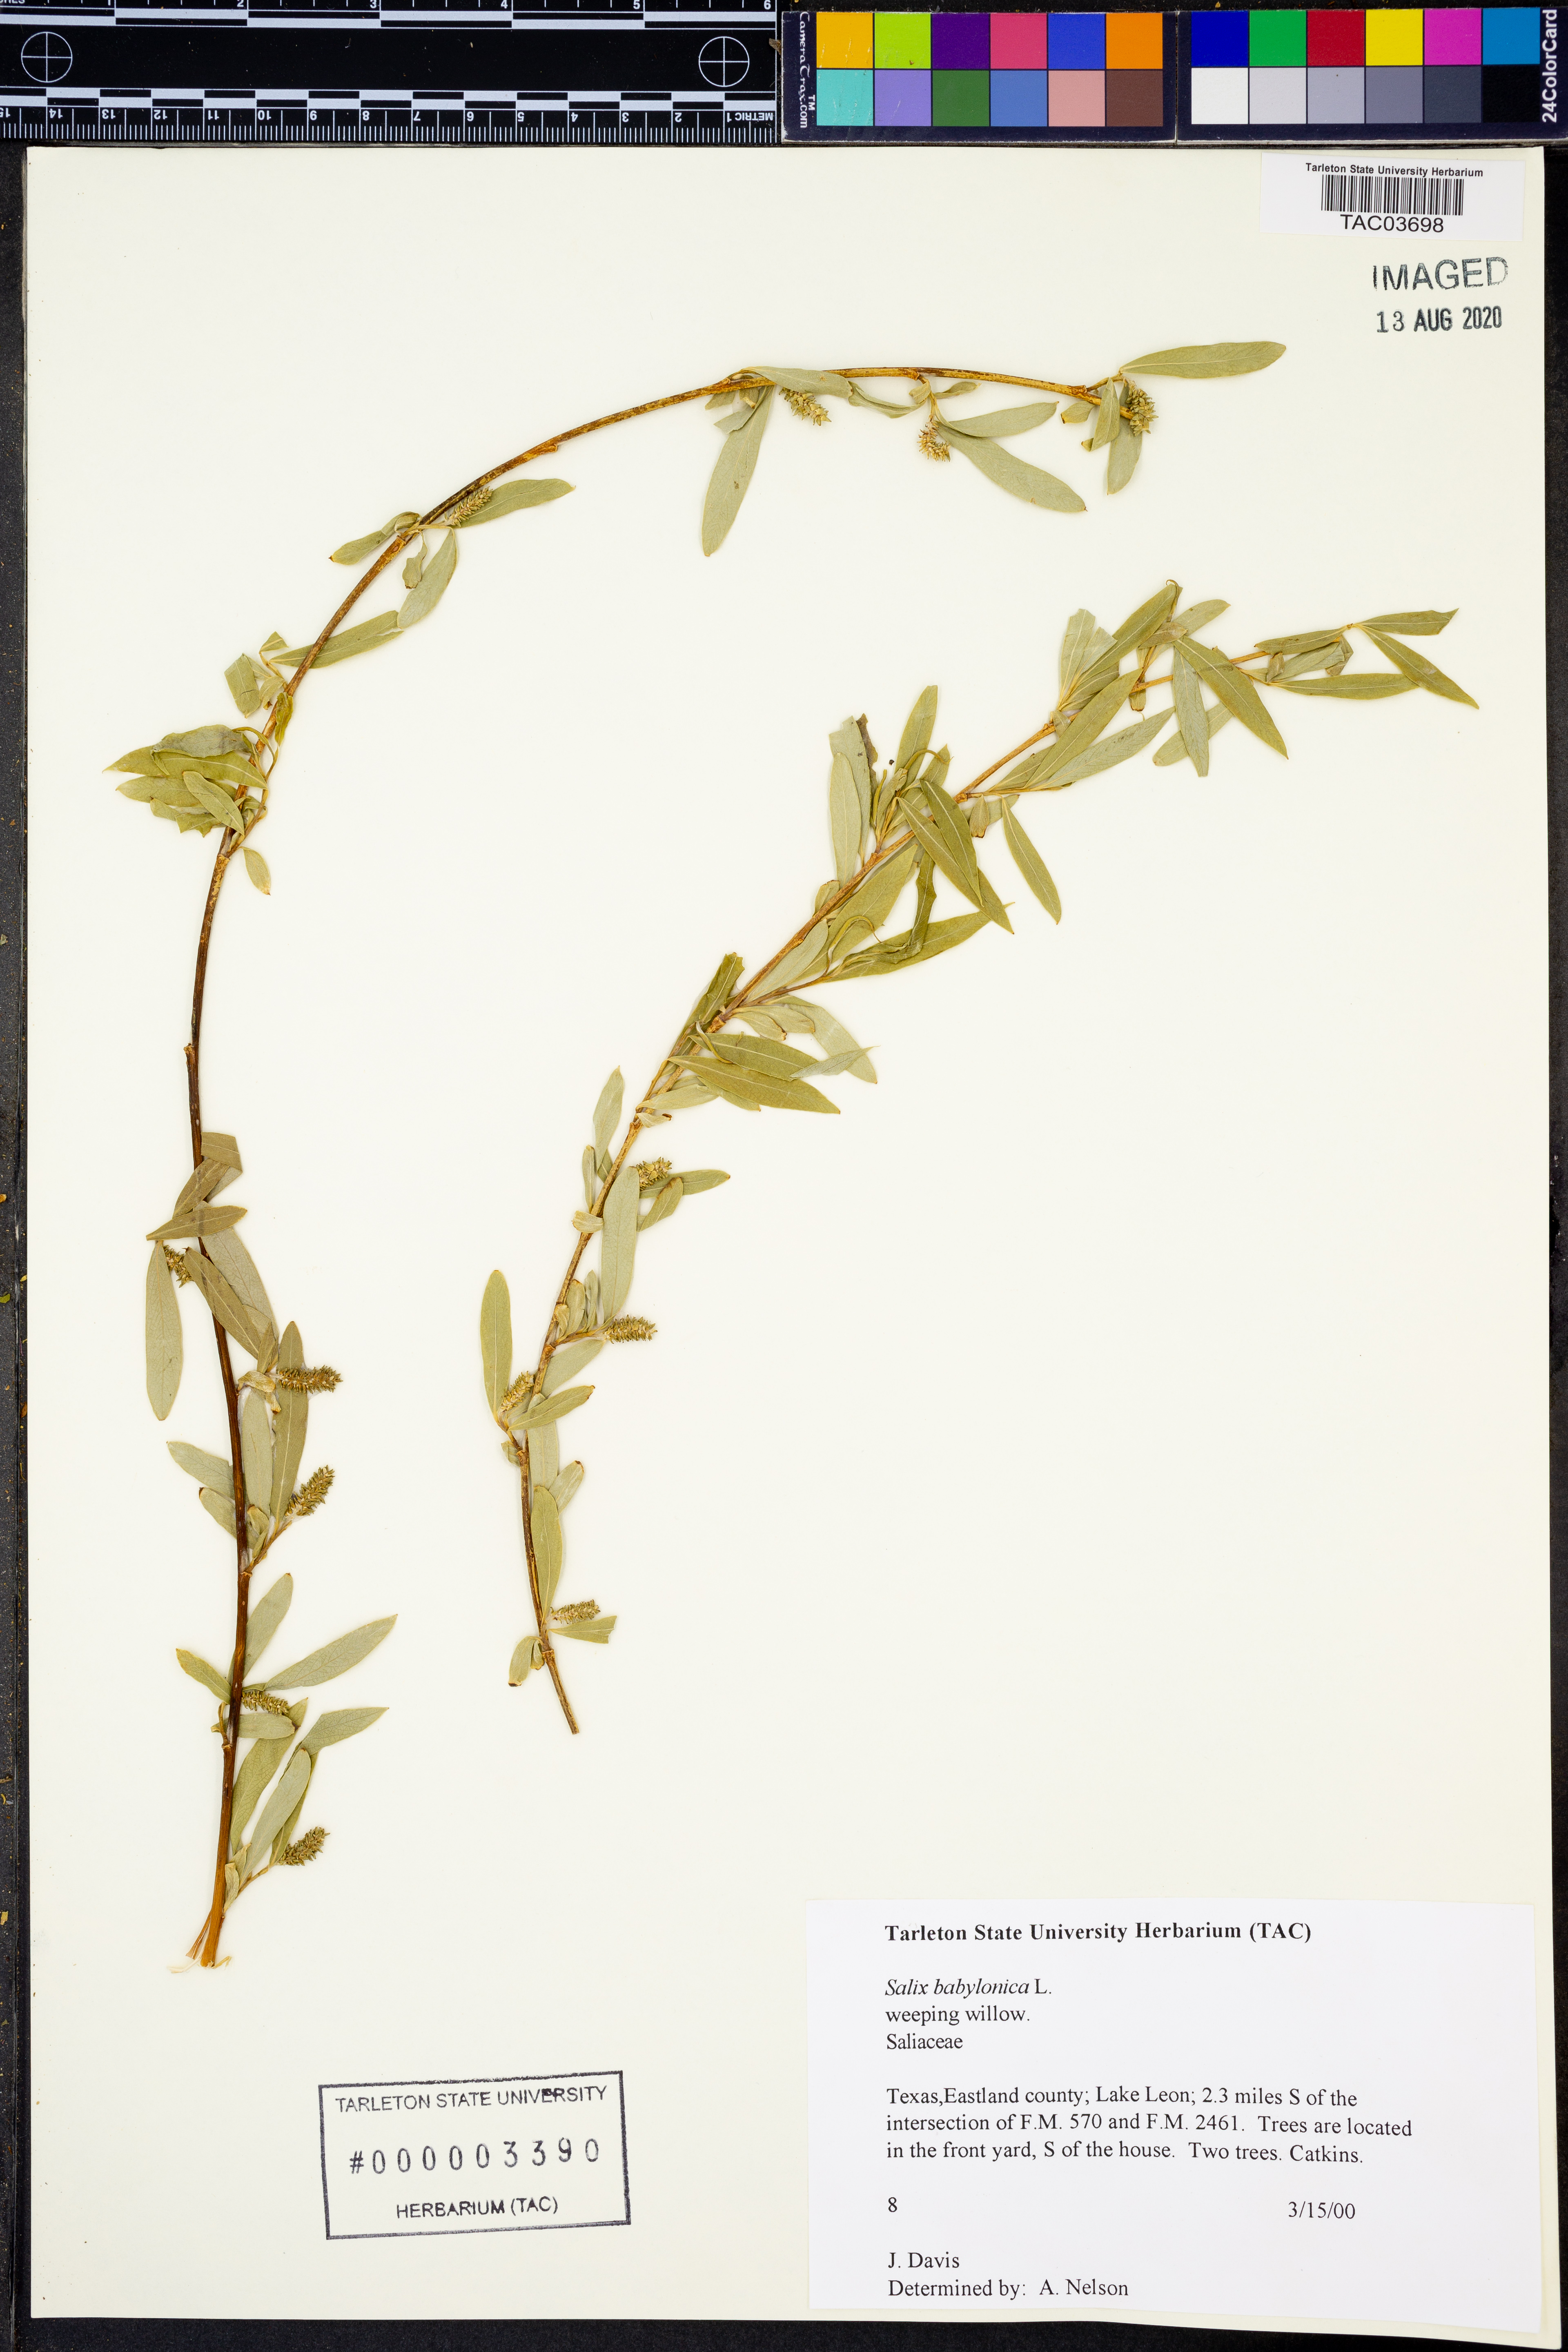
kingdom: Plantae
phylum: Tracheophyta
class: Magnoliopsida
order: Malpighiales
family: Salicaceae
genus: Salix
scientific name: Salix babylonica
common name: Weeping willow
